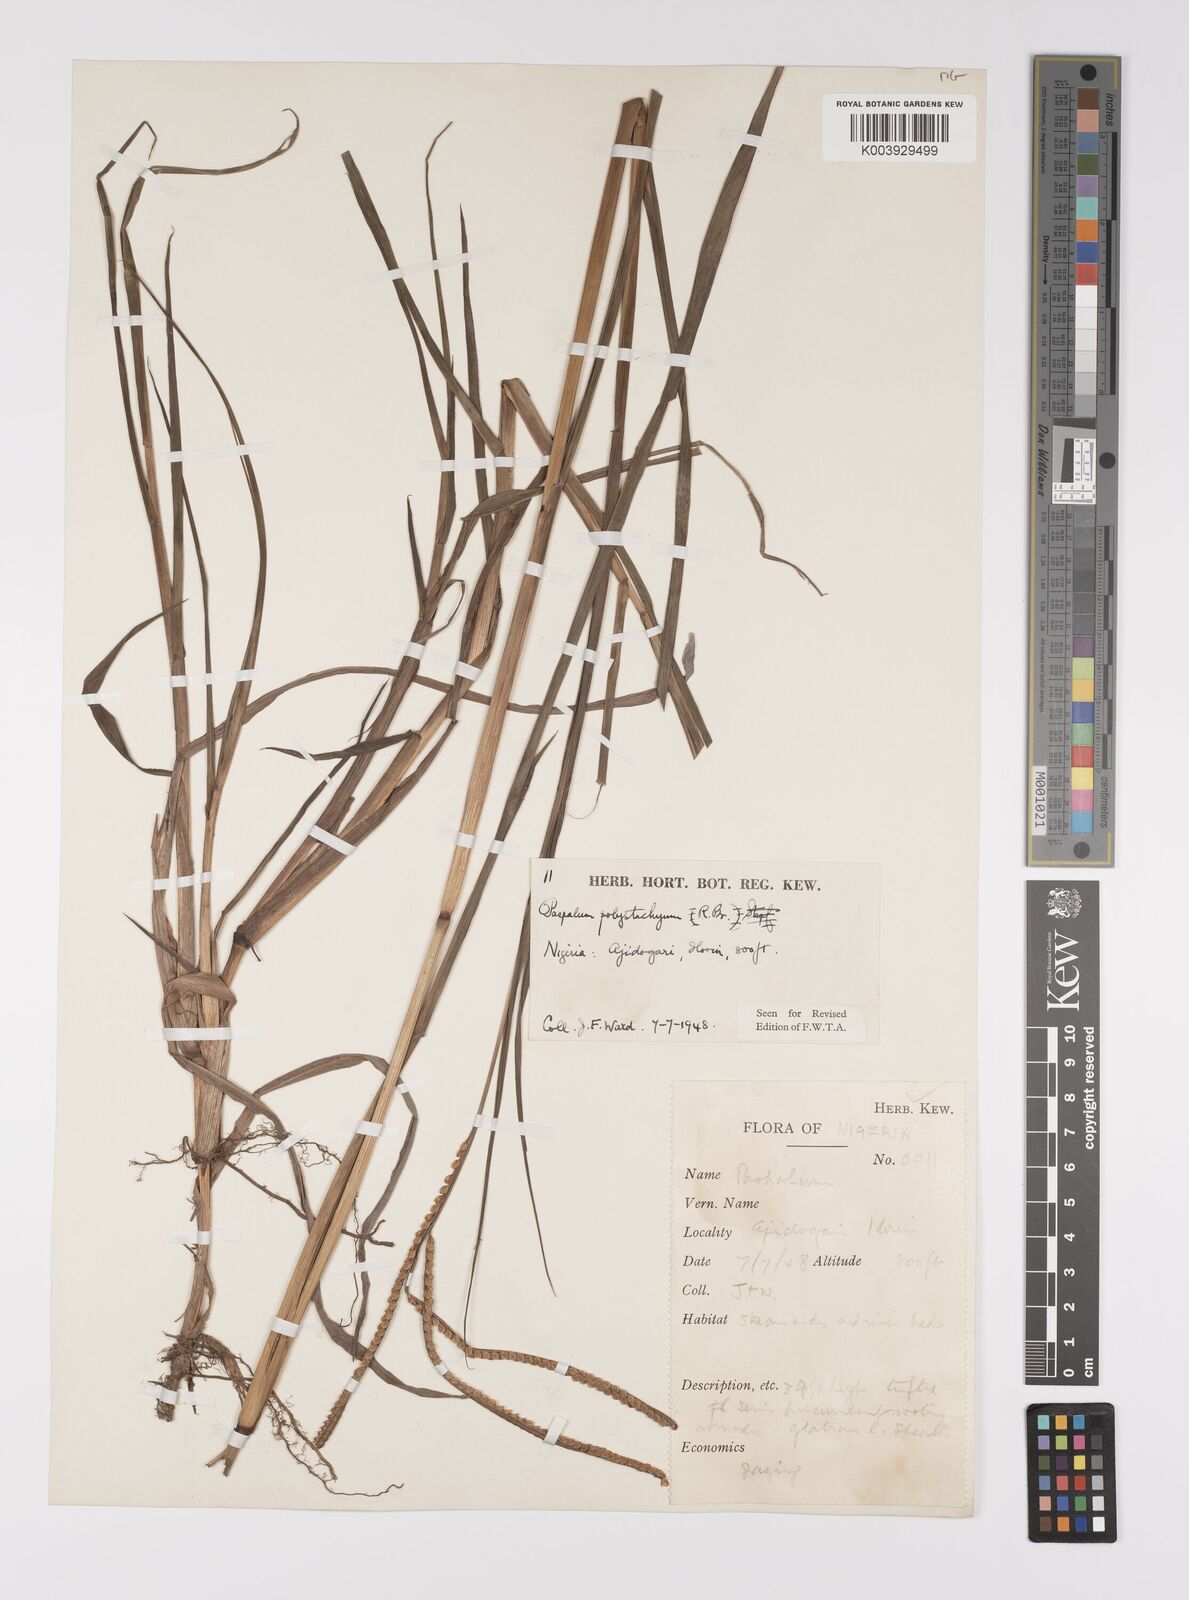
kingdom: Plantae
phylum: Tracheophyta
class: Liliopsida
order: Poales
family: Poaceae
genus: Paspalum
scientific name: Paspalum scrobiculatum
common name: Kodo millet
